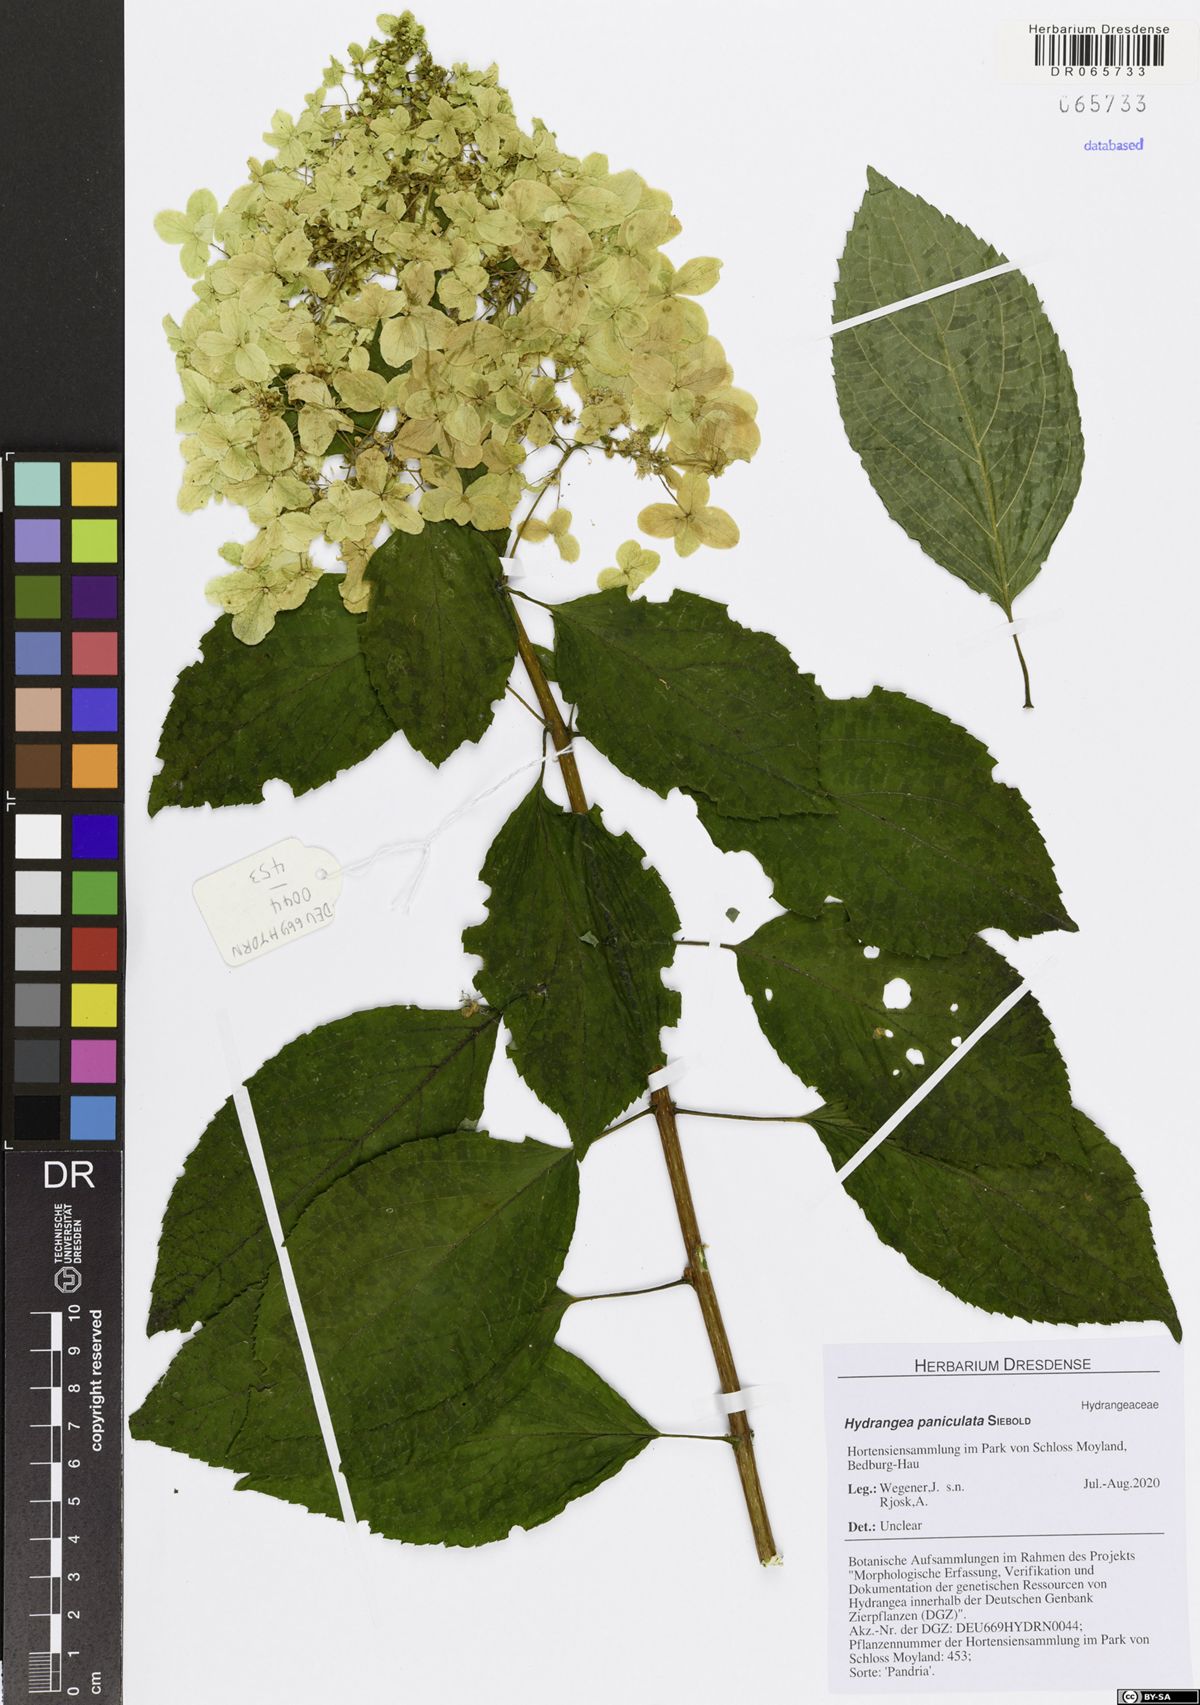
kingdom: Plantae
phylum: Tracheophyta
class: Magnoliopsida
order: Cornales
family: Hydrangeaceae
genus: Hydrangea
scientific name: Hydrangea paniculata
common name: Panicled hydrangea
